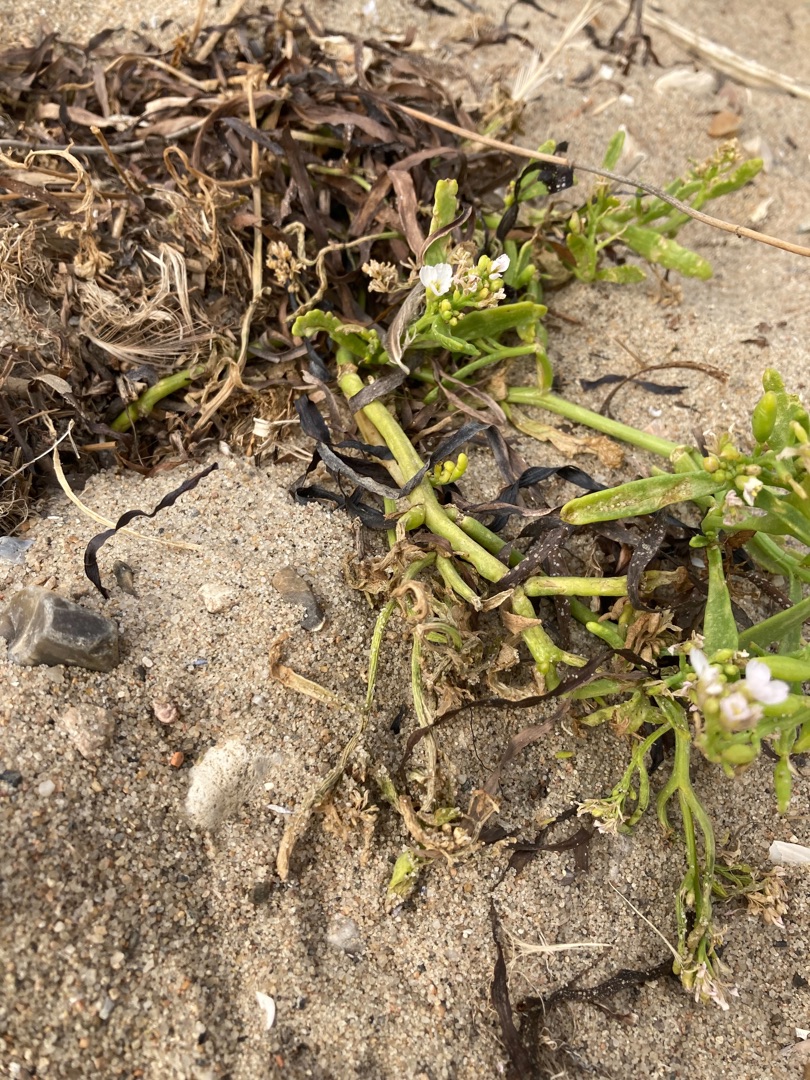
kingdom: Plantae
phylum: Tracheophyta
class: Magnoliopsida
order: Brassicales
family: Brassicaceae
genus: Cakile
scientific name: Cakile maritima
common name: Vesterhavs-strandsennep
